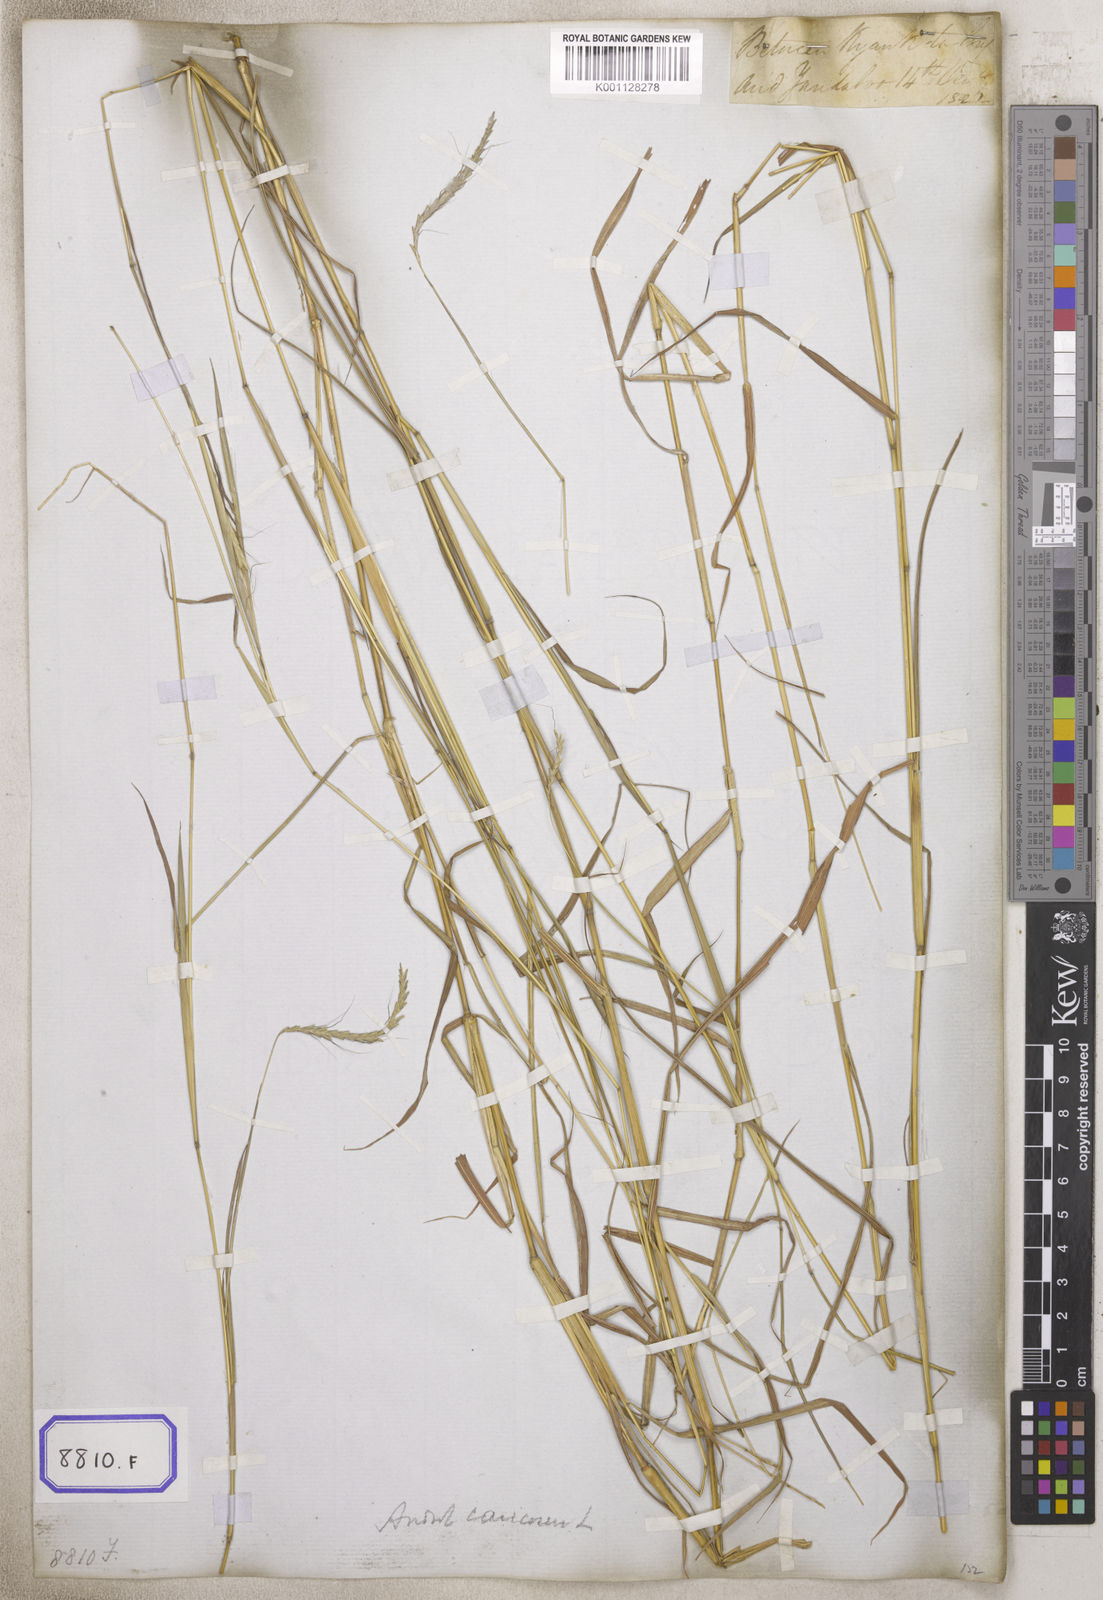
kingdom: Plantae
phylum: Tracheophyta
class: Liliopsida
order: Poales
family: Poaceae
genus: Andropogon
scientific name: Andropogon
